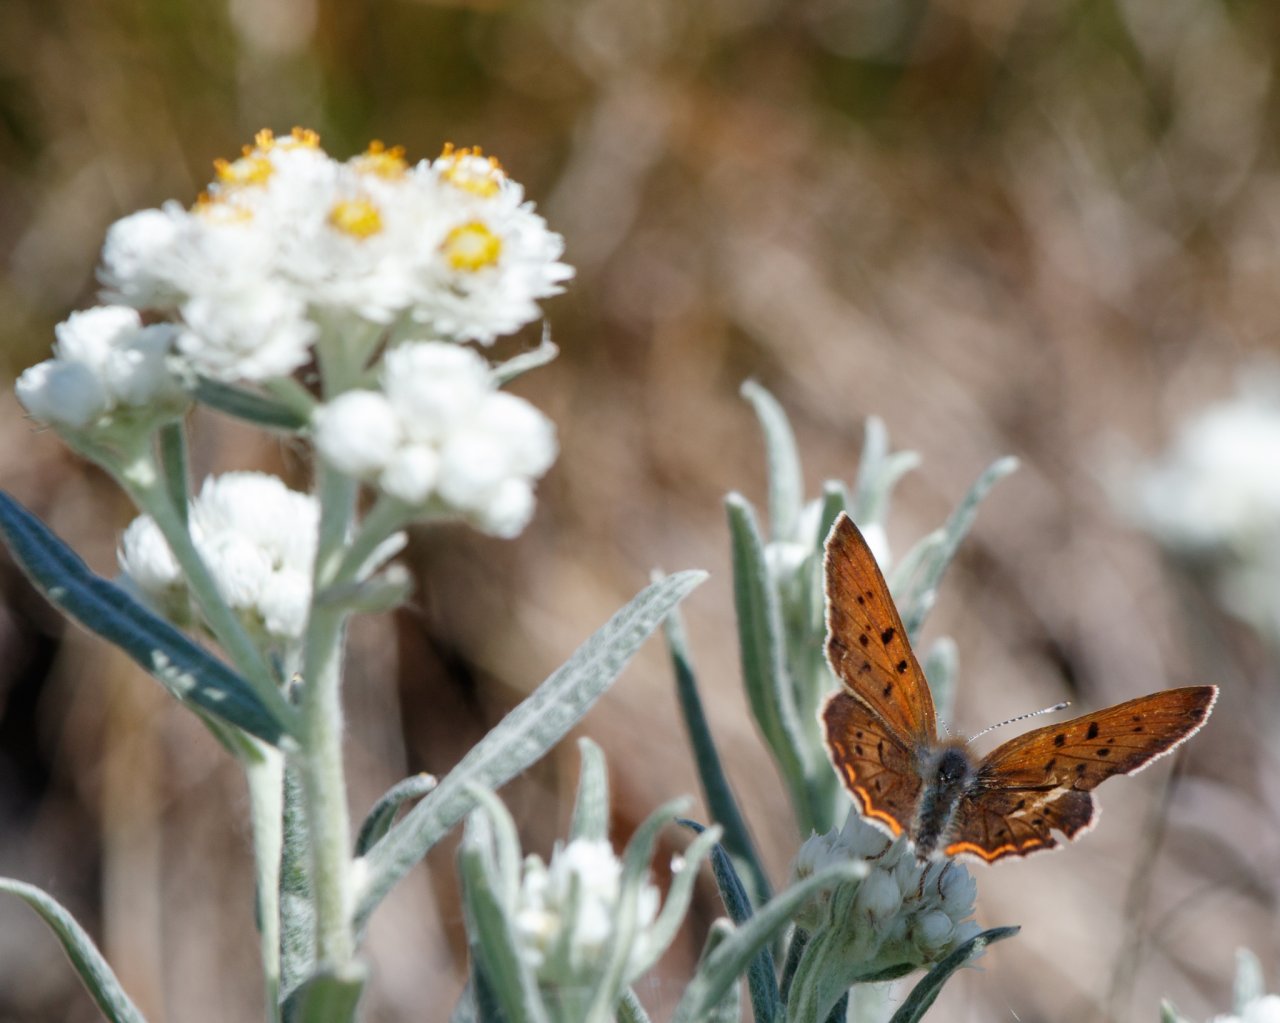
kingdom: Animalia
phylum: Arthropoda
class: Insecta
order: Lepidoptera
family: Sesiidae
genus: Sesia
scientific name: Sesia Lycaena helloides
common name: Purplish Copper
